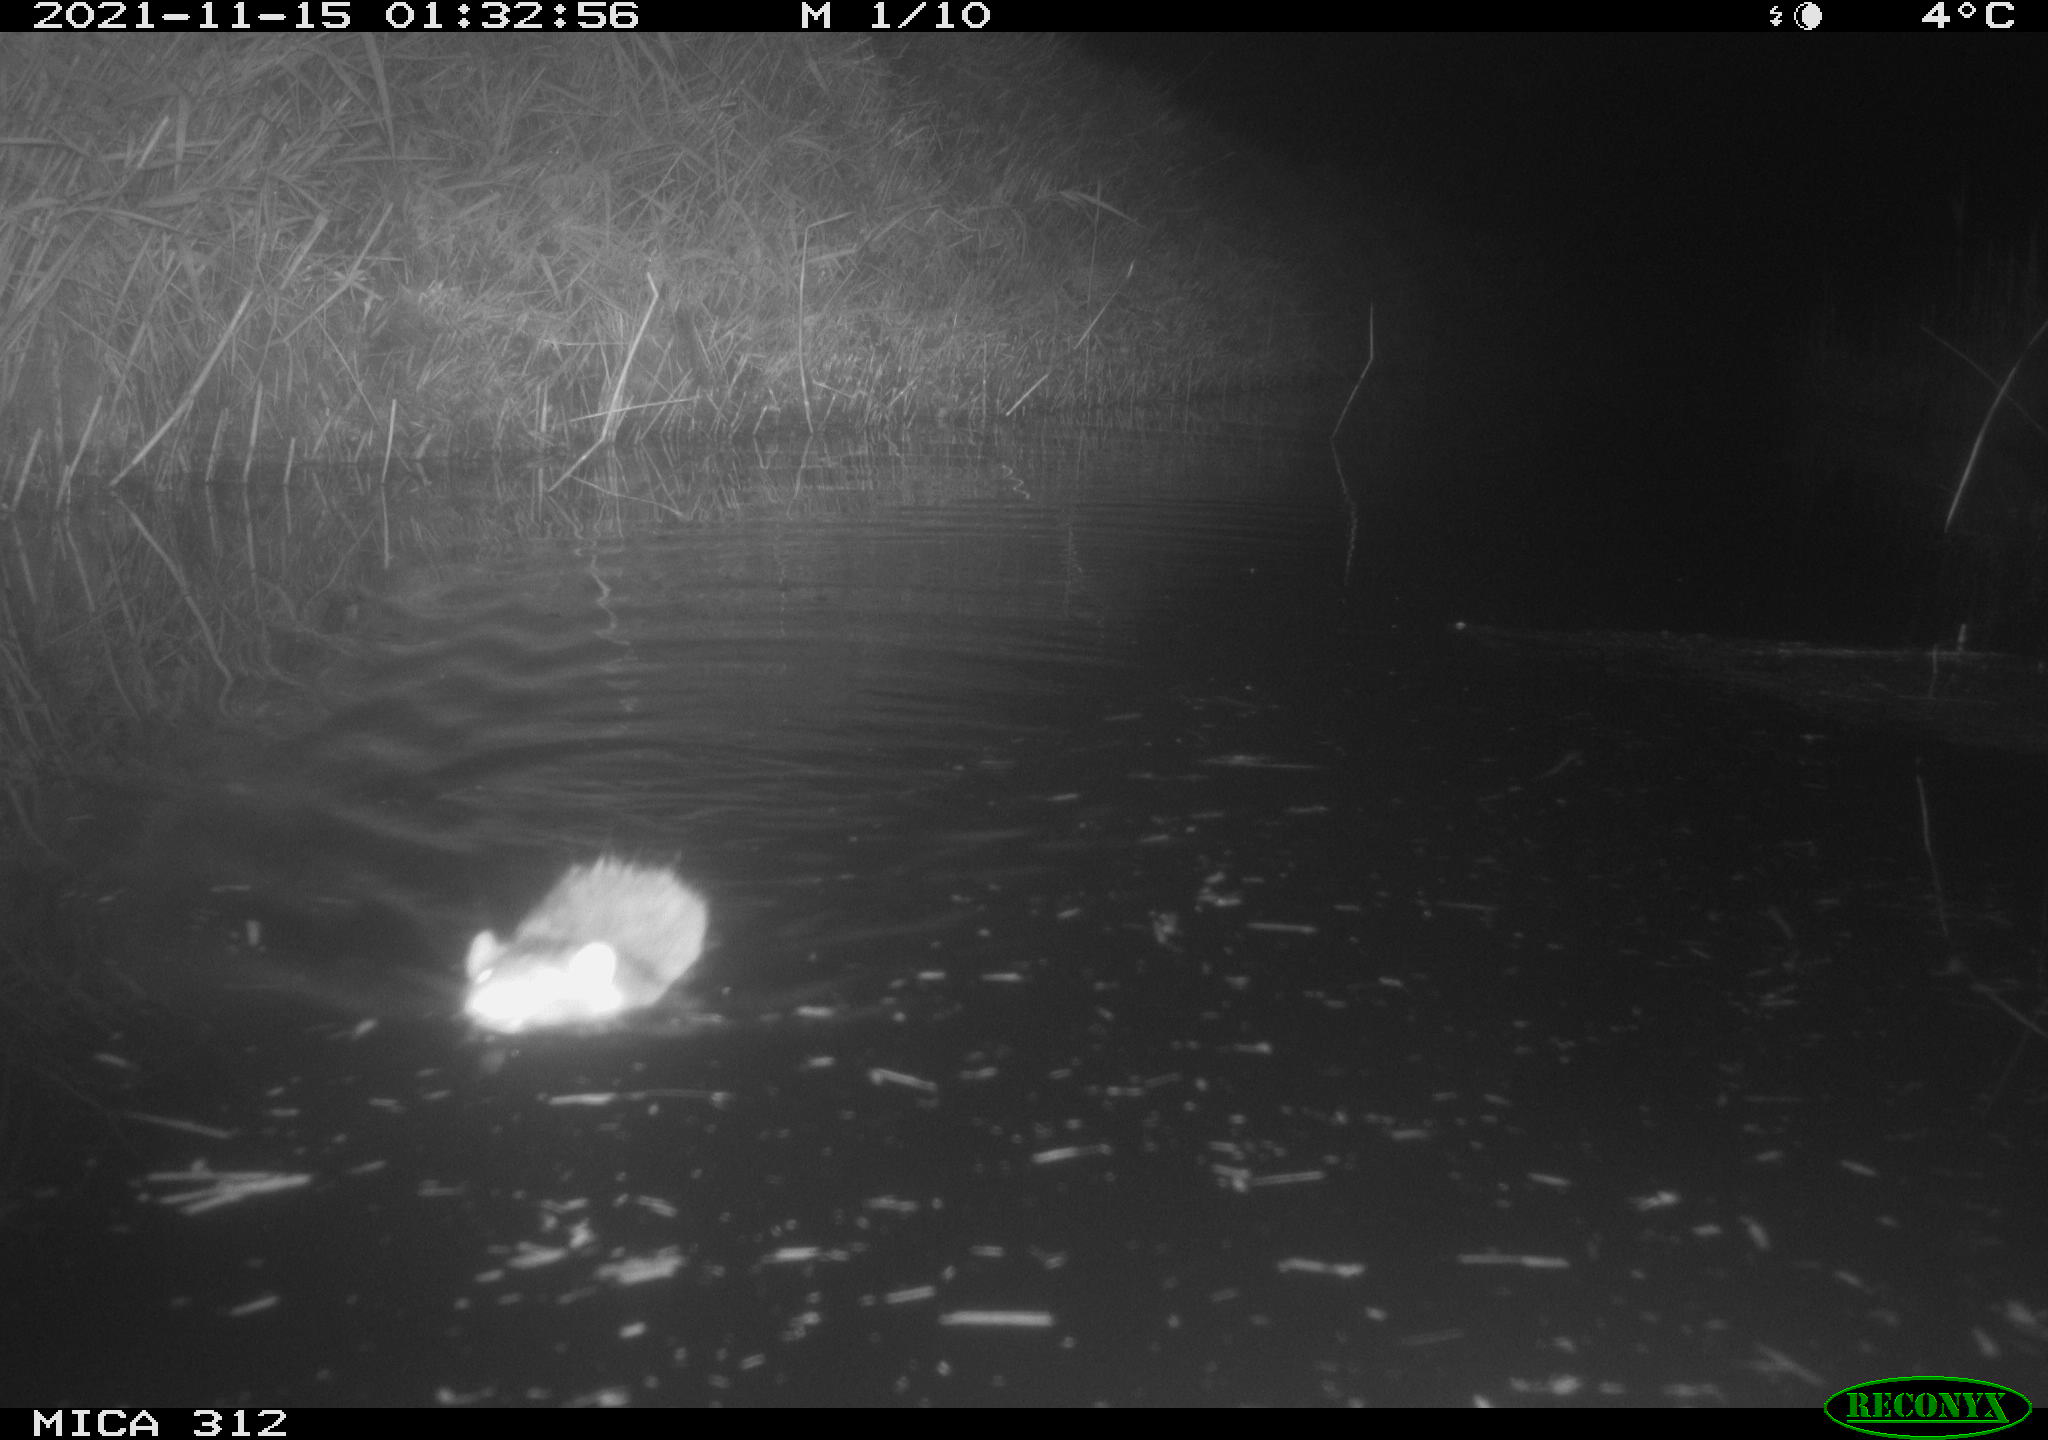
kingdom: Animalia
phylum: Chordata
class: Mammalia
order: Rodentia
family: Muridae
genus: Rattus
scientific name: Rattus norvegicus
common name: Brown rat
